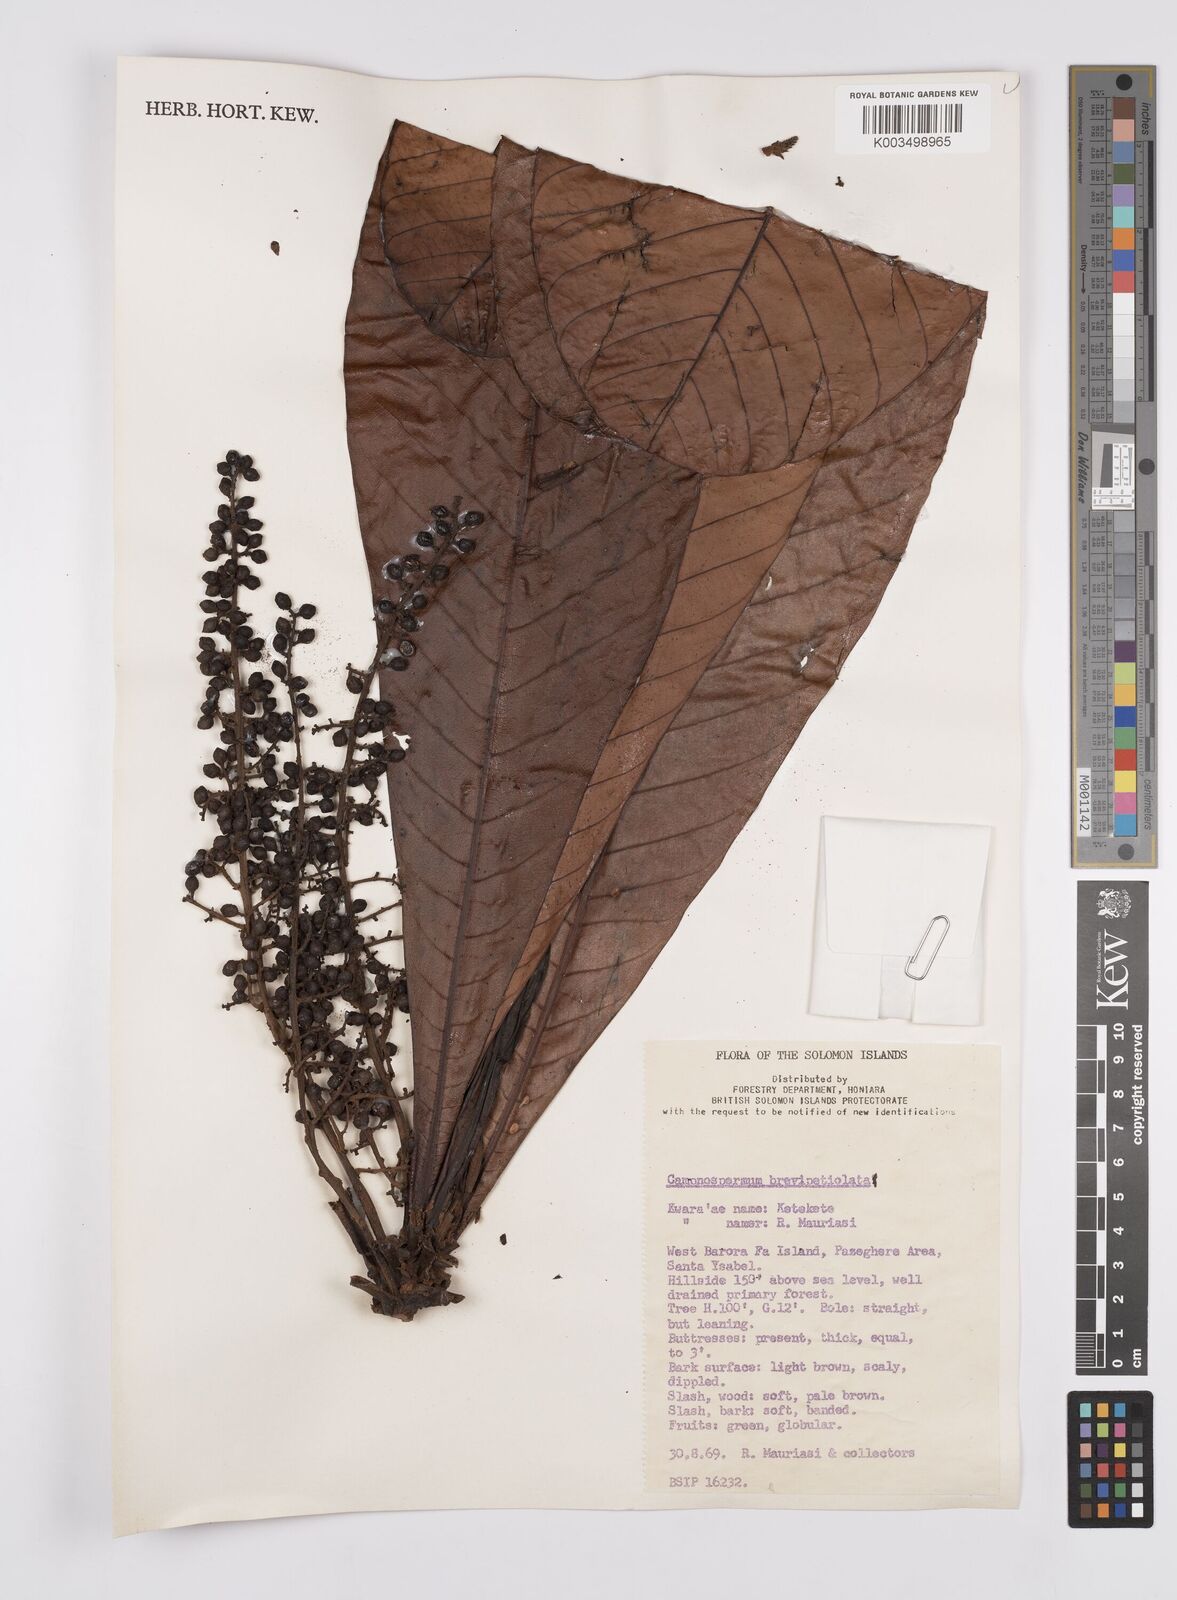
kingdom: Plantae
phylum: Tracheophyta
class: Magnoliopsida
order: Sapindales
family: Anacardiaceae
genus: Campnosperma
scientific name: Campnosperma brevipetiolatum
